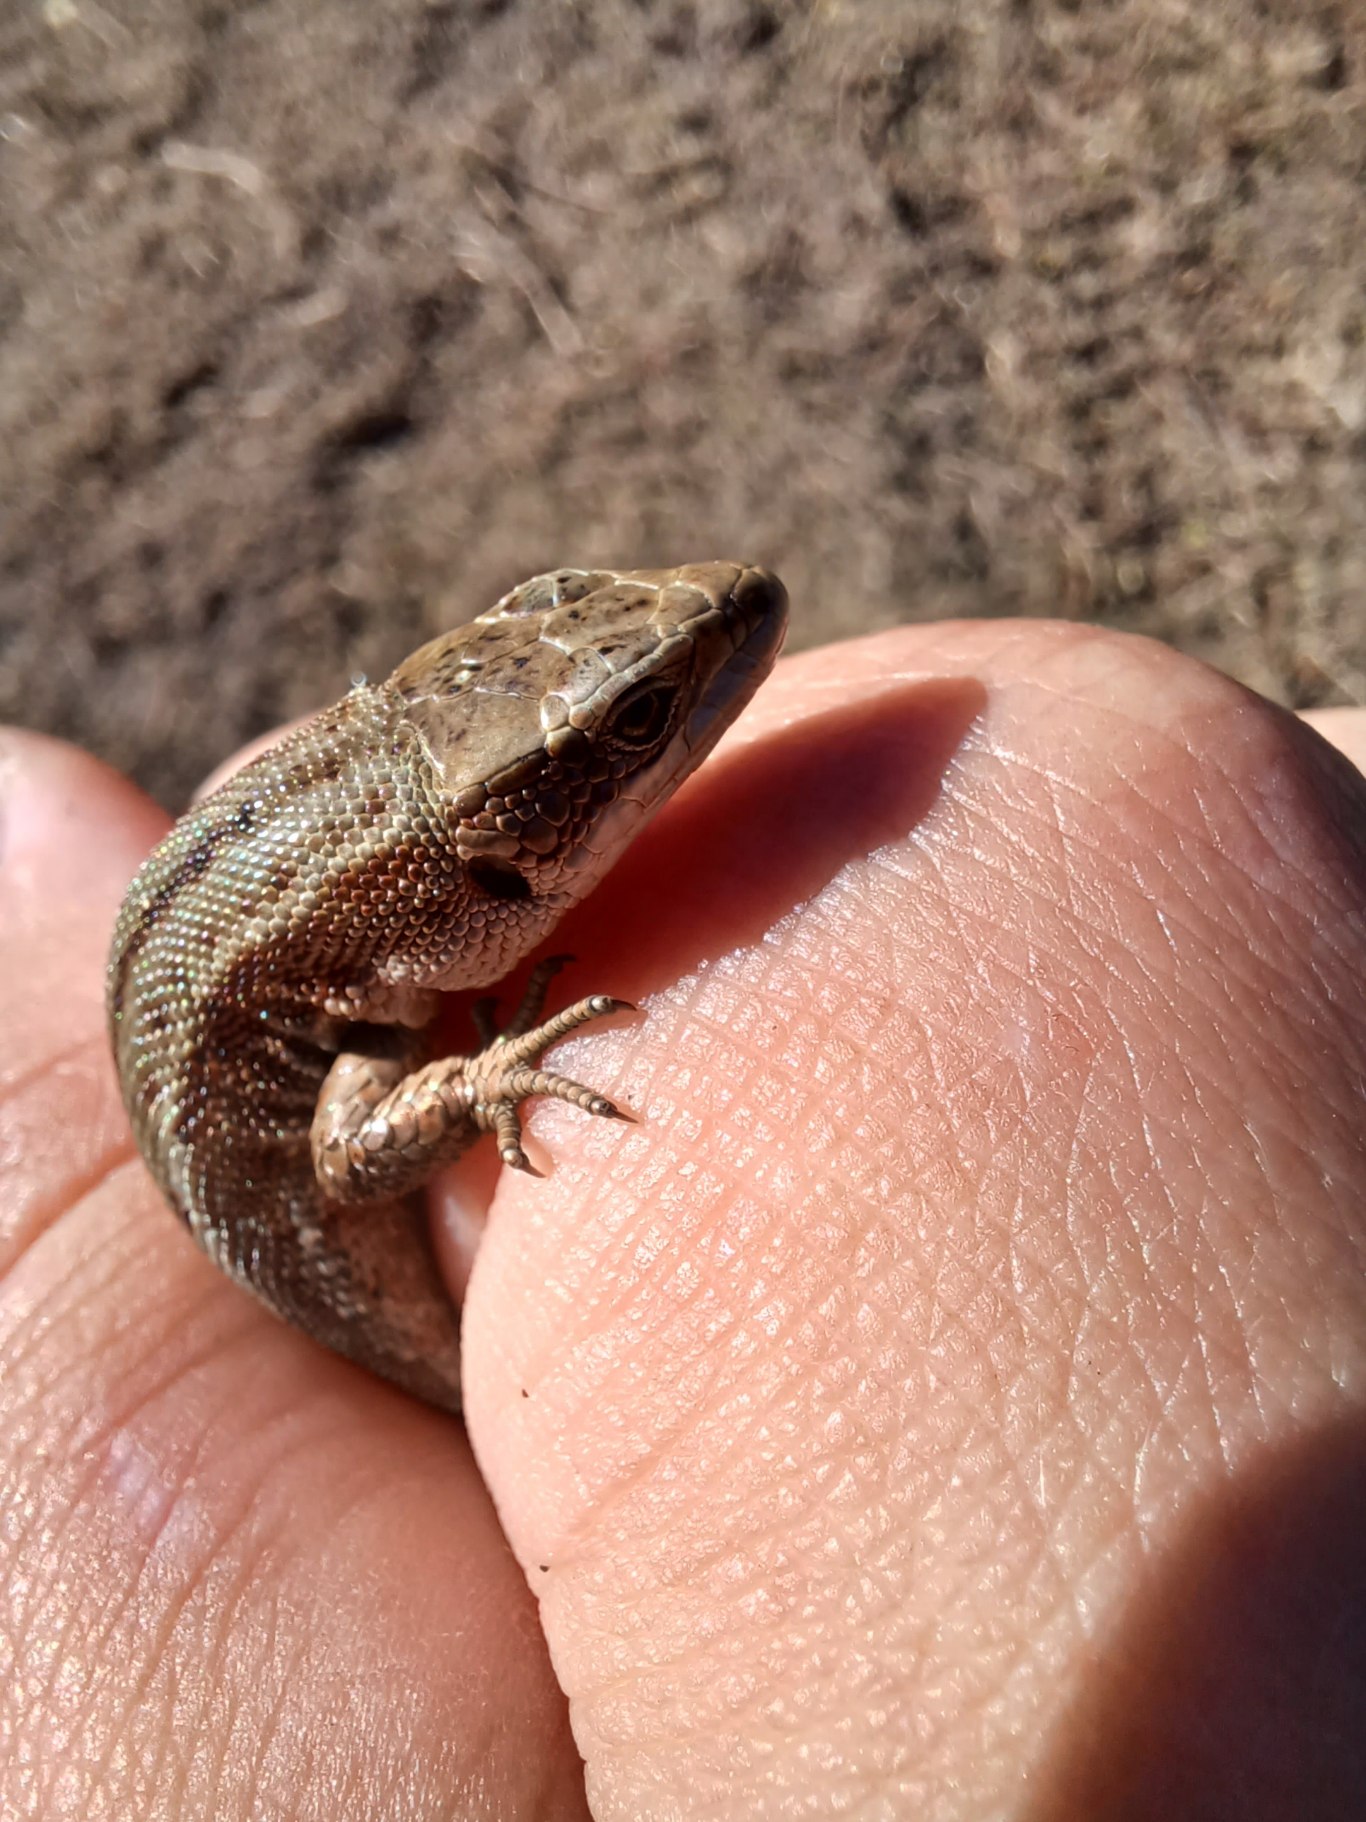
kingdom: Animalia
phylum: Chordata
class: Squamata
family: Lacertidae
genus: Zootoca
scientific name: Zootoca vivipara
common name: Skovfirben
